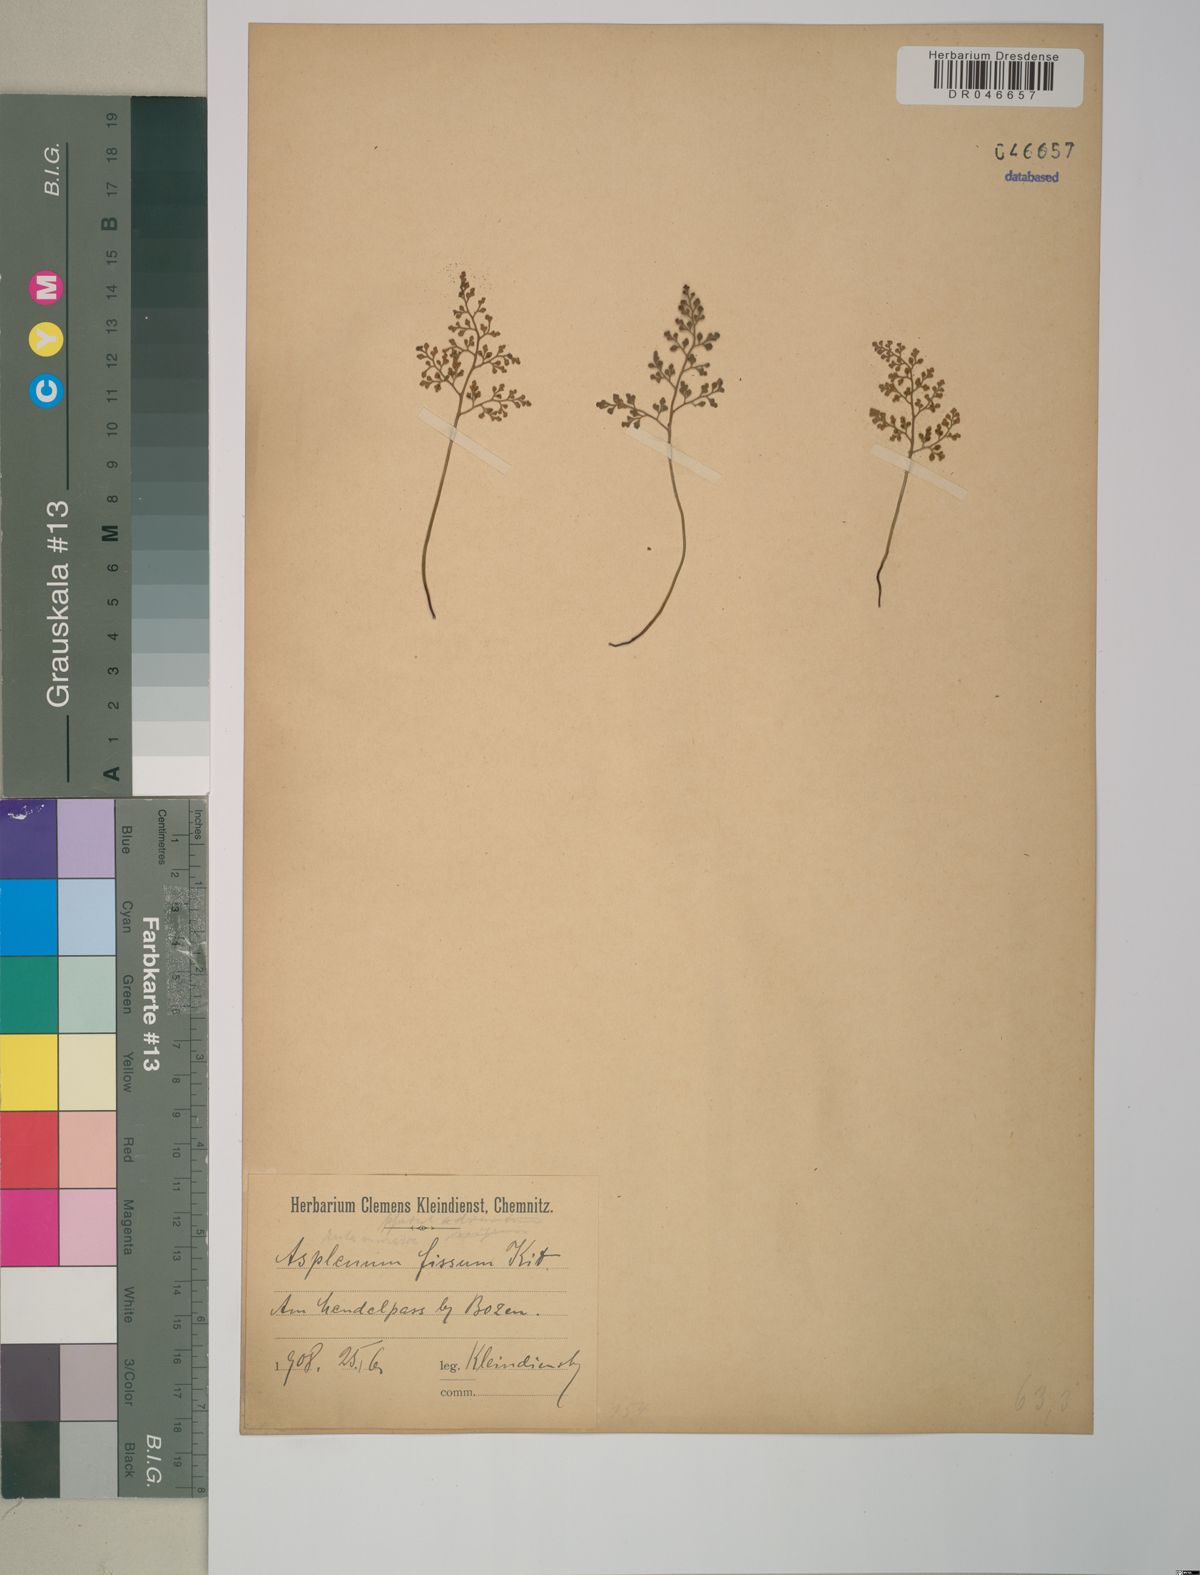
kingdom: Plantae
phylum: Tracheophyta
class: Polypodiopsida
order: Polypodiales
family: Aspleniaceae
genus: Asplenium
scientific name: Asplenium fissum
